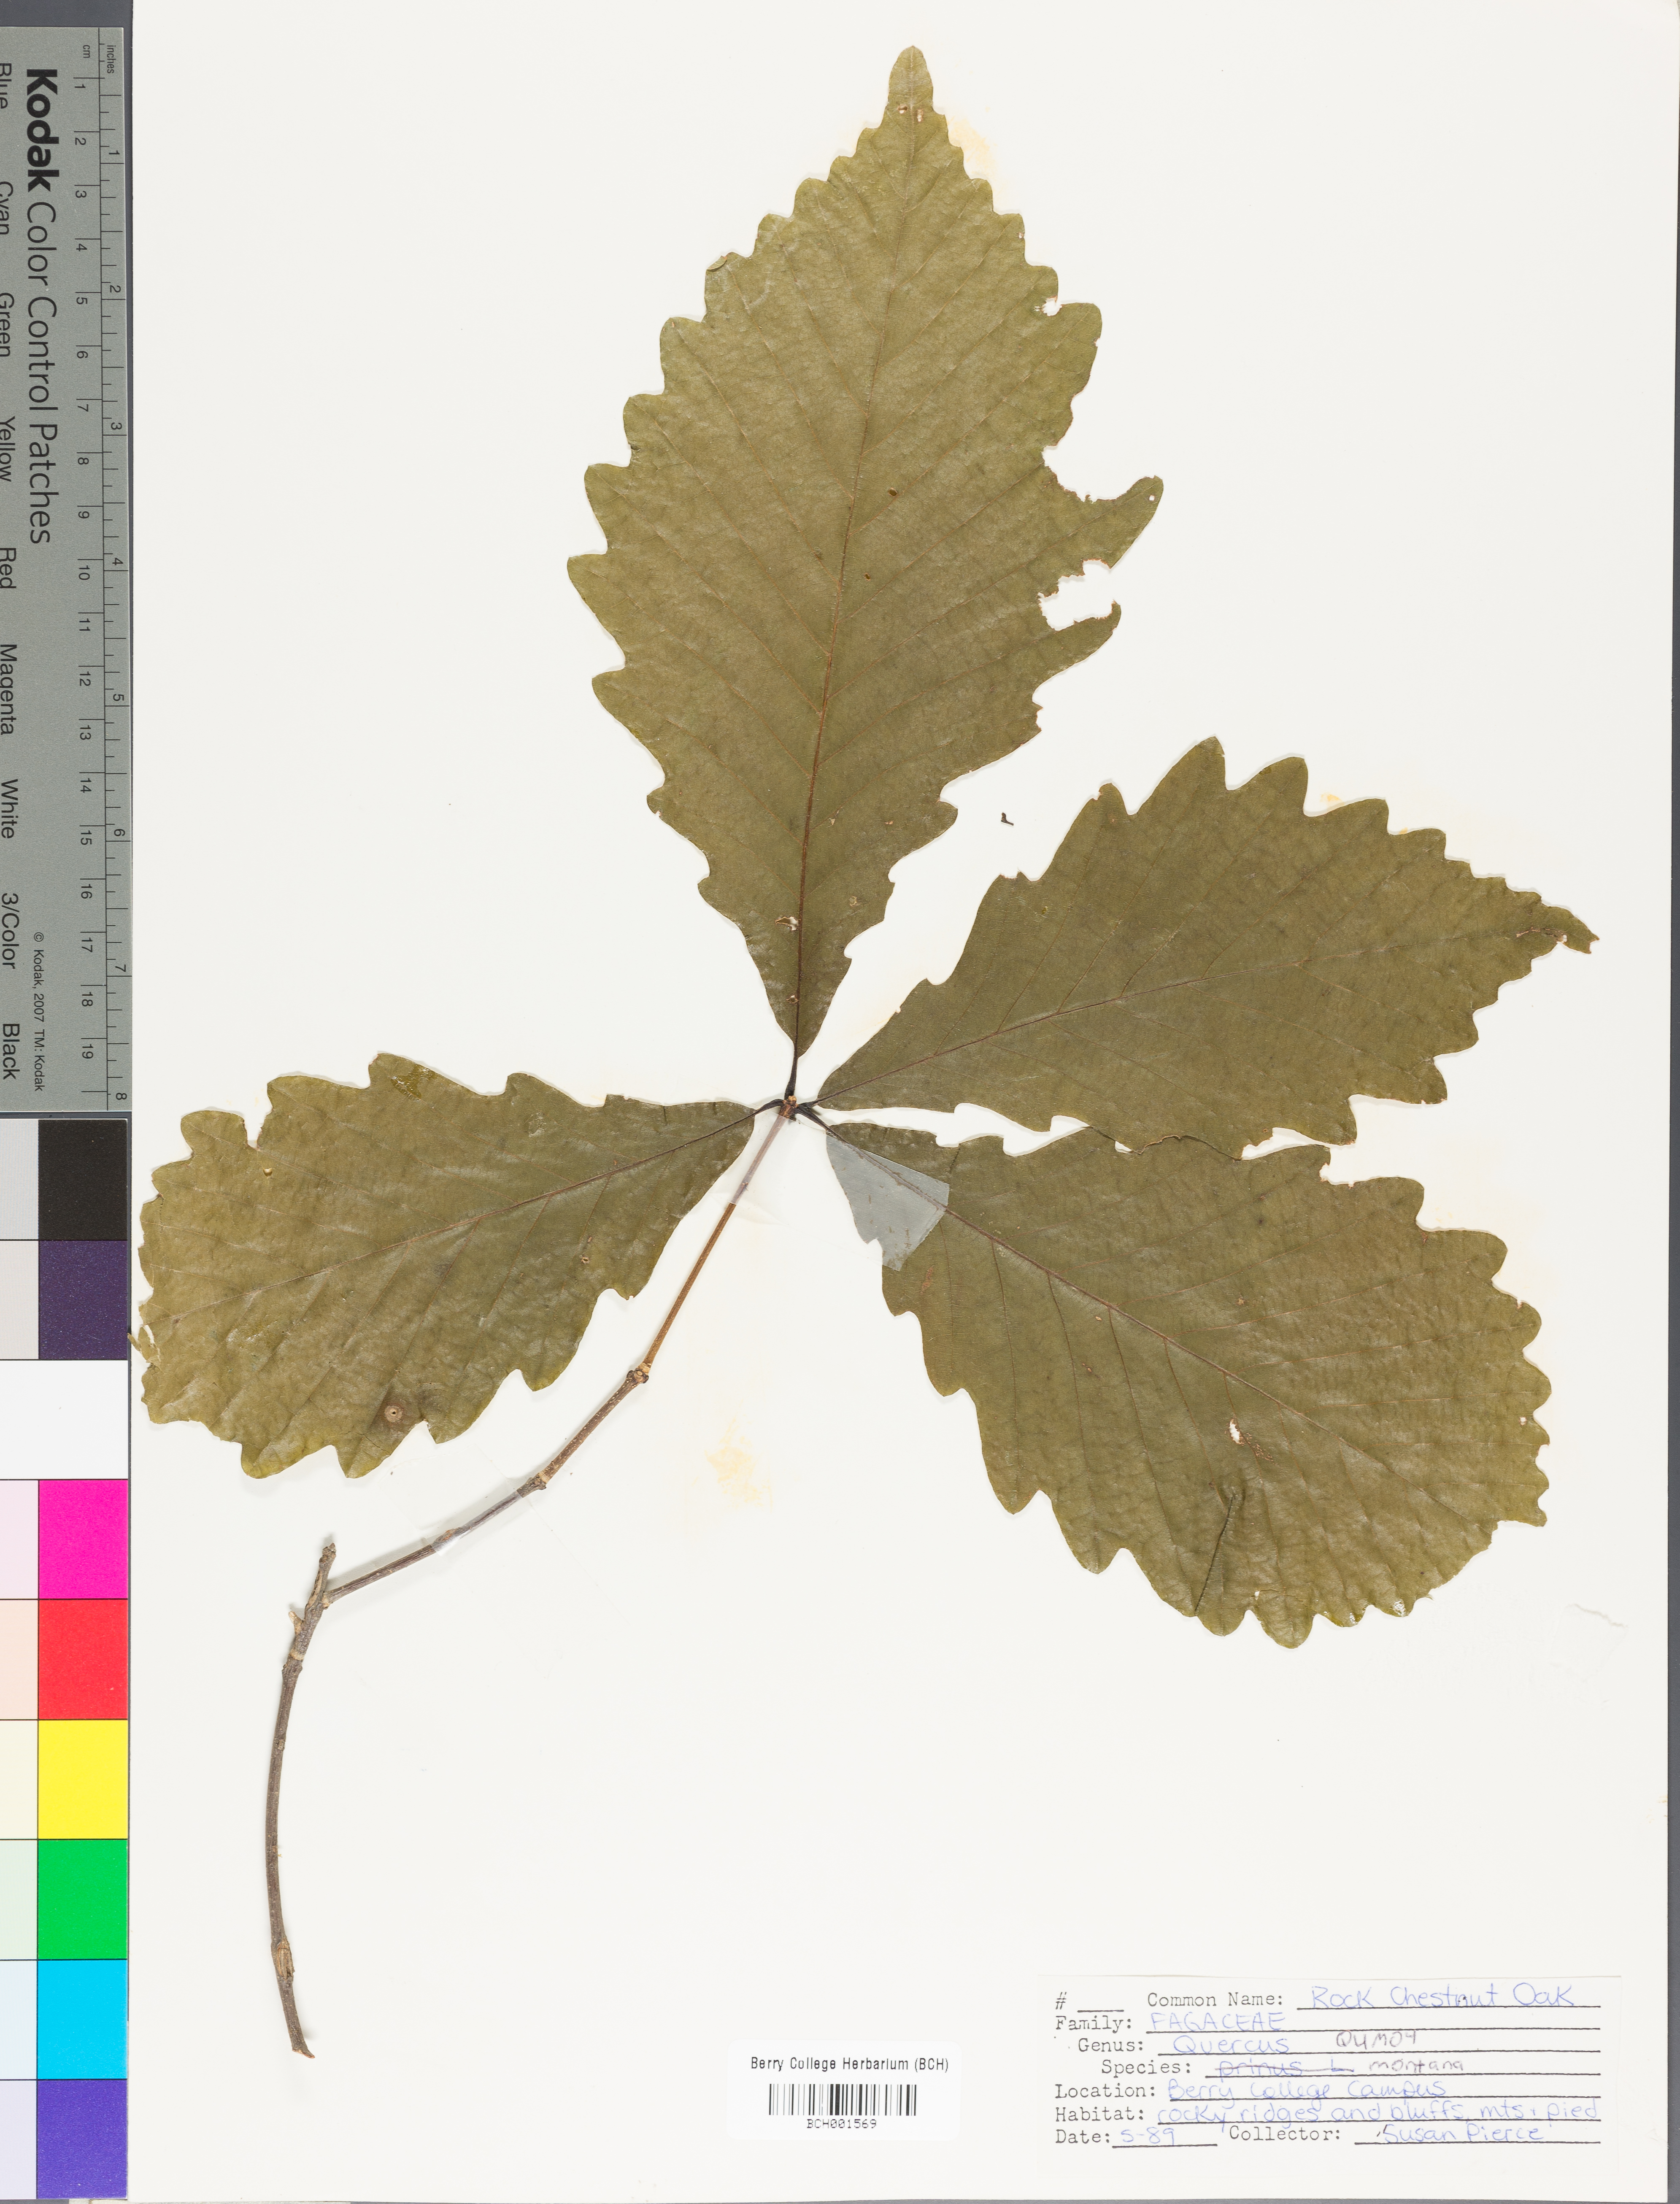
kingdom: Plantae
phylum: Tracheophyta
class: Magnoliopsida
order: Fagales
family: Fagaceae
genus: Quercus
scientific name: Quercus montana
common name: Chestnut oak
